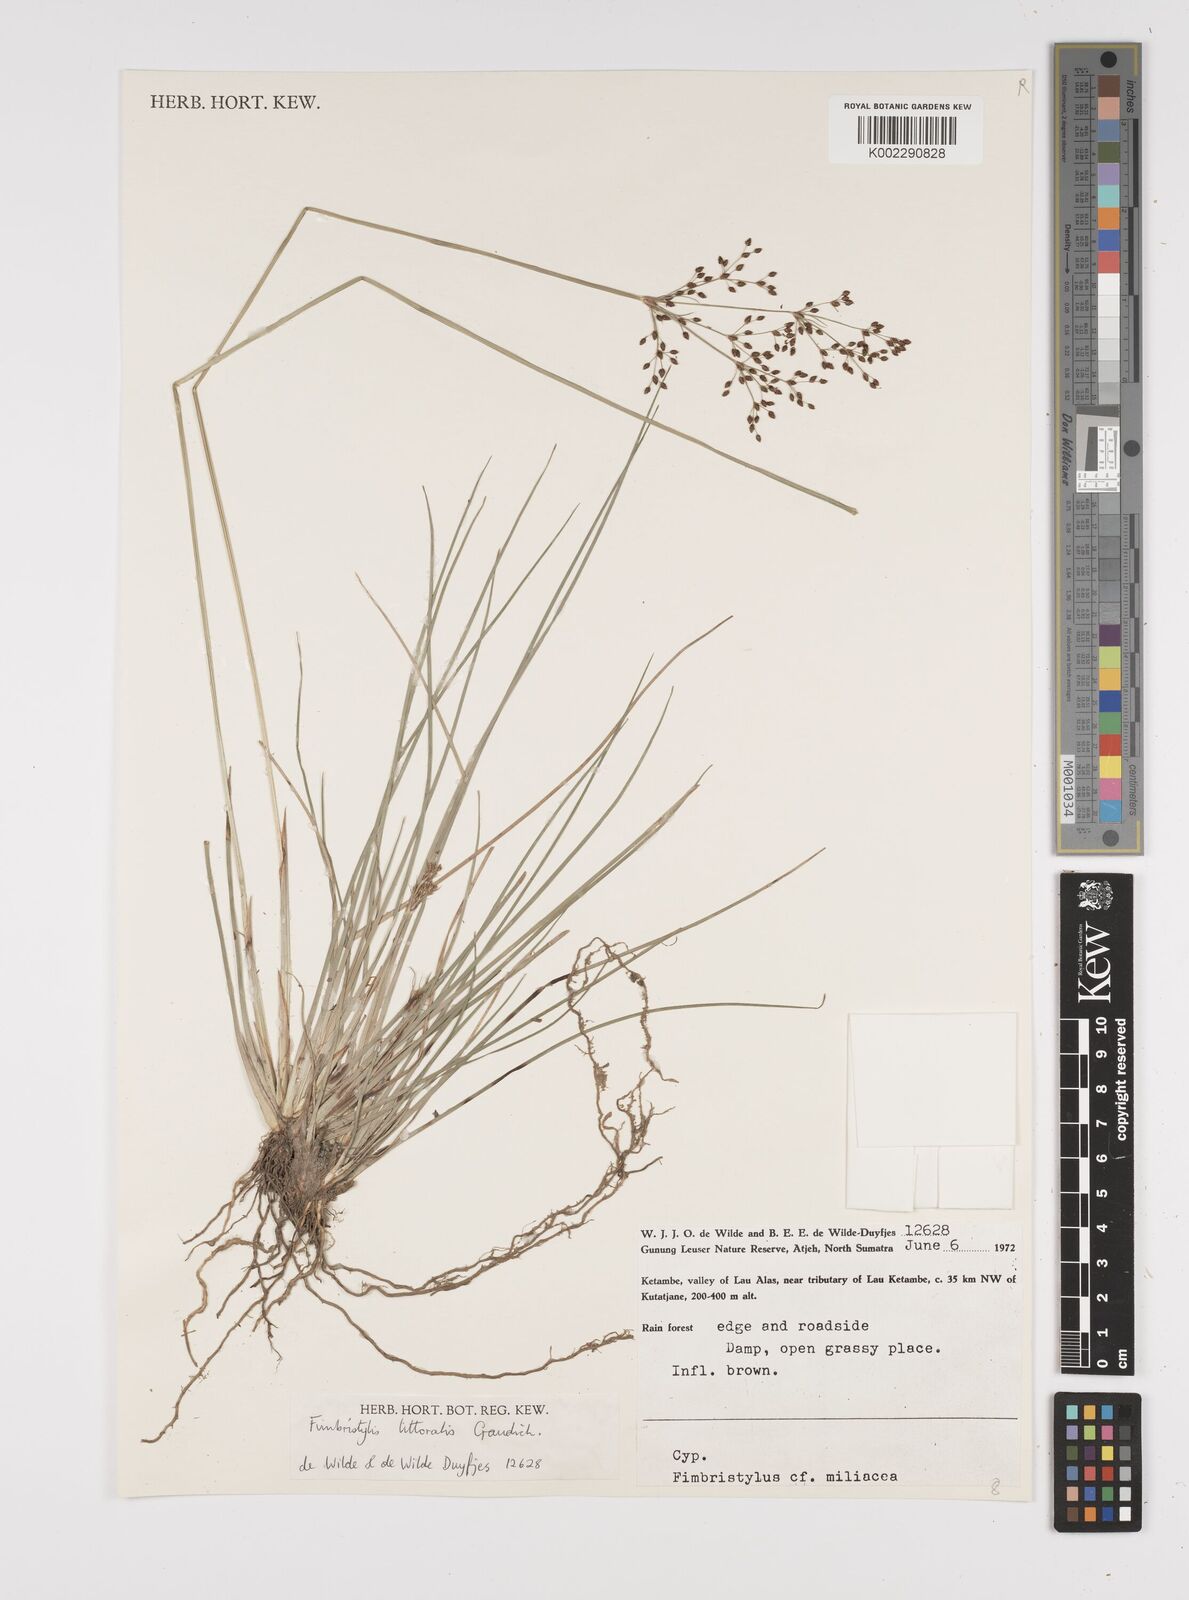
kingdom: Plantae
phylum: Tracheophyta
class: Liliopsida
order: Poales
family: Cyperaceae
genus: Fimbristylis
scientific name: Fimbristylis littoralis
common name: Fimbry
